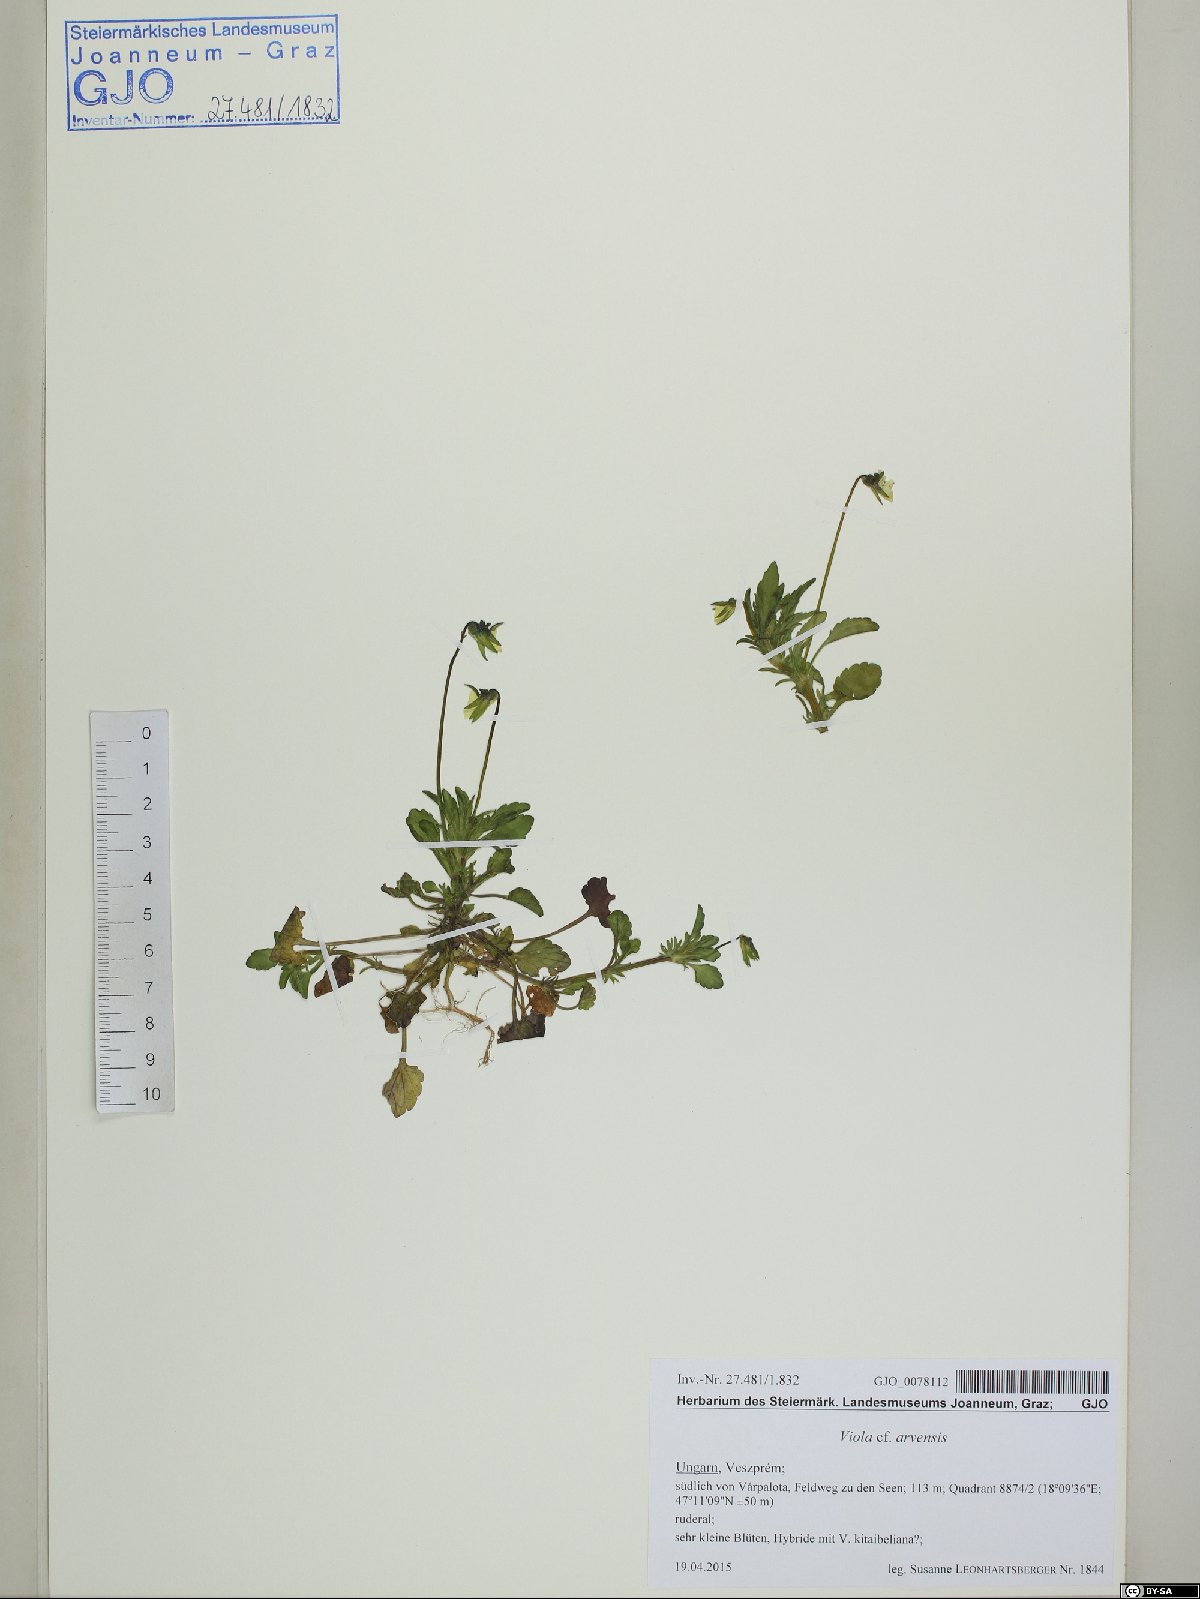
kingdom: Plantae
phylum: Tracheophyta
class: Magnoliopsida
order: Malpighiales
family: Violaceae
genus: Viola
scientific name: Viola arvensis
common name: Field pansy
